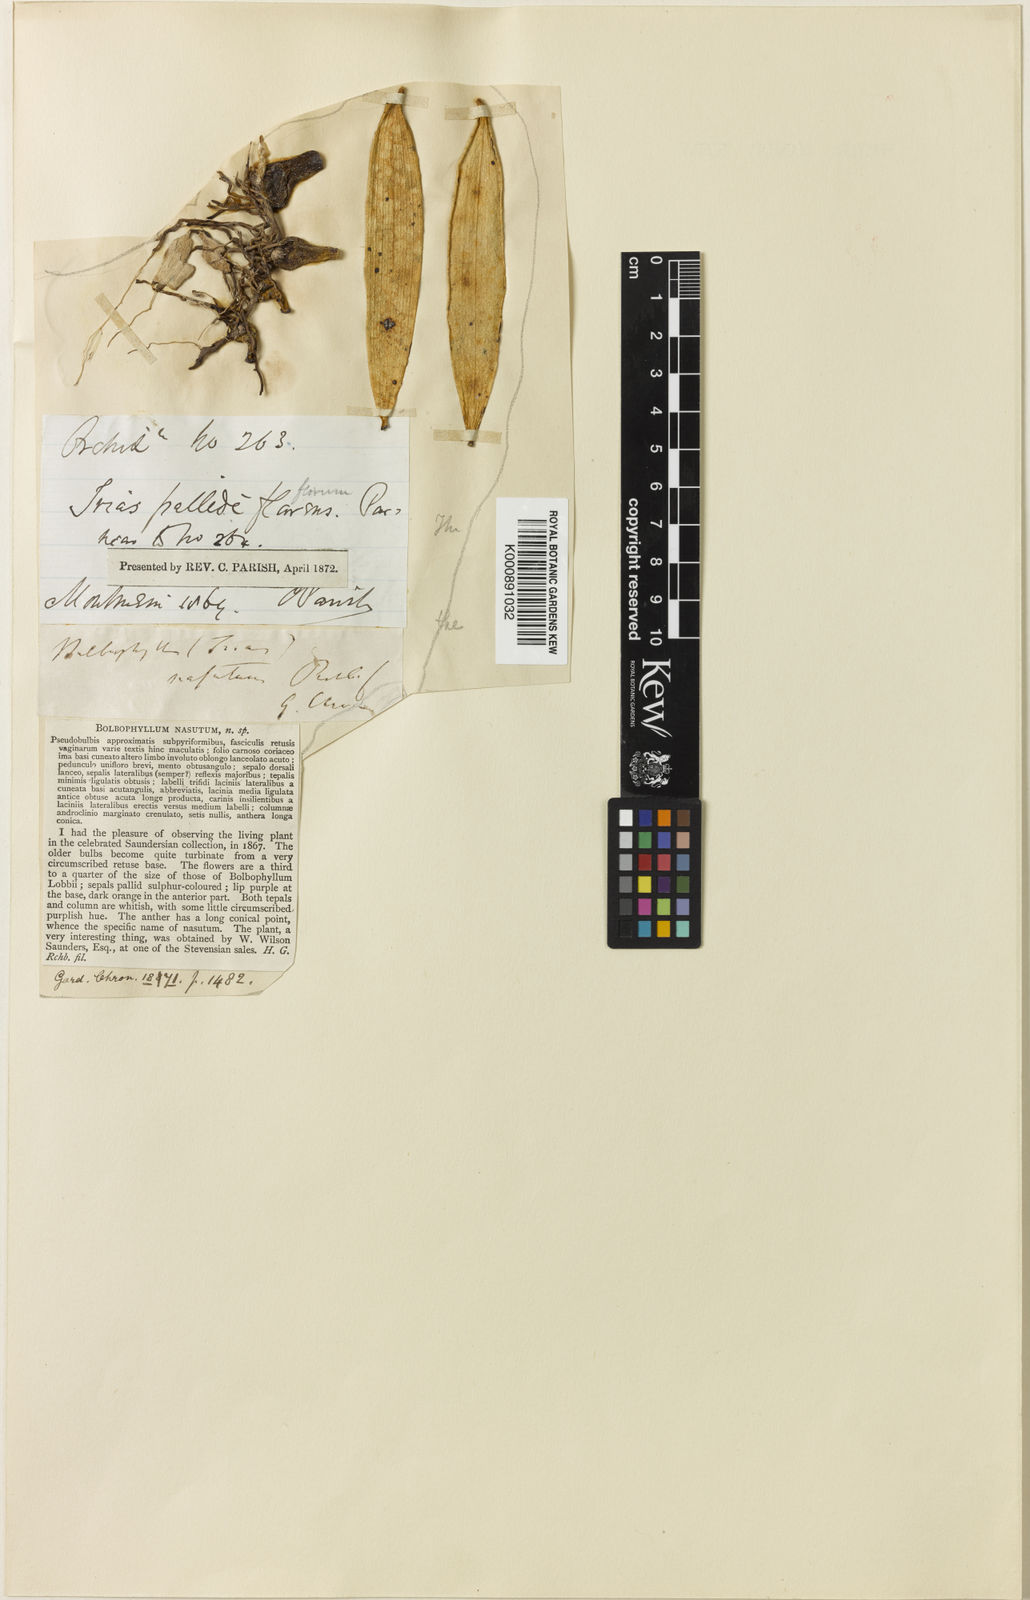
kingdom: Plantae
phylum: Tracheophyta
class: Liliopsida
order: Asparagales
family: Orchidaceae
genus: Bulbophyllum
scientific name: Bulbophyllum nasutum
